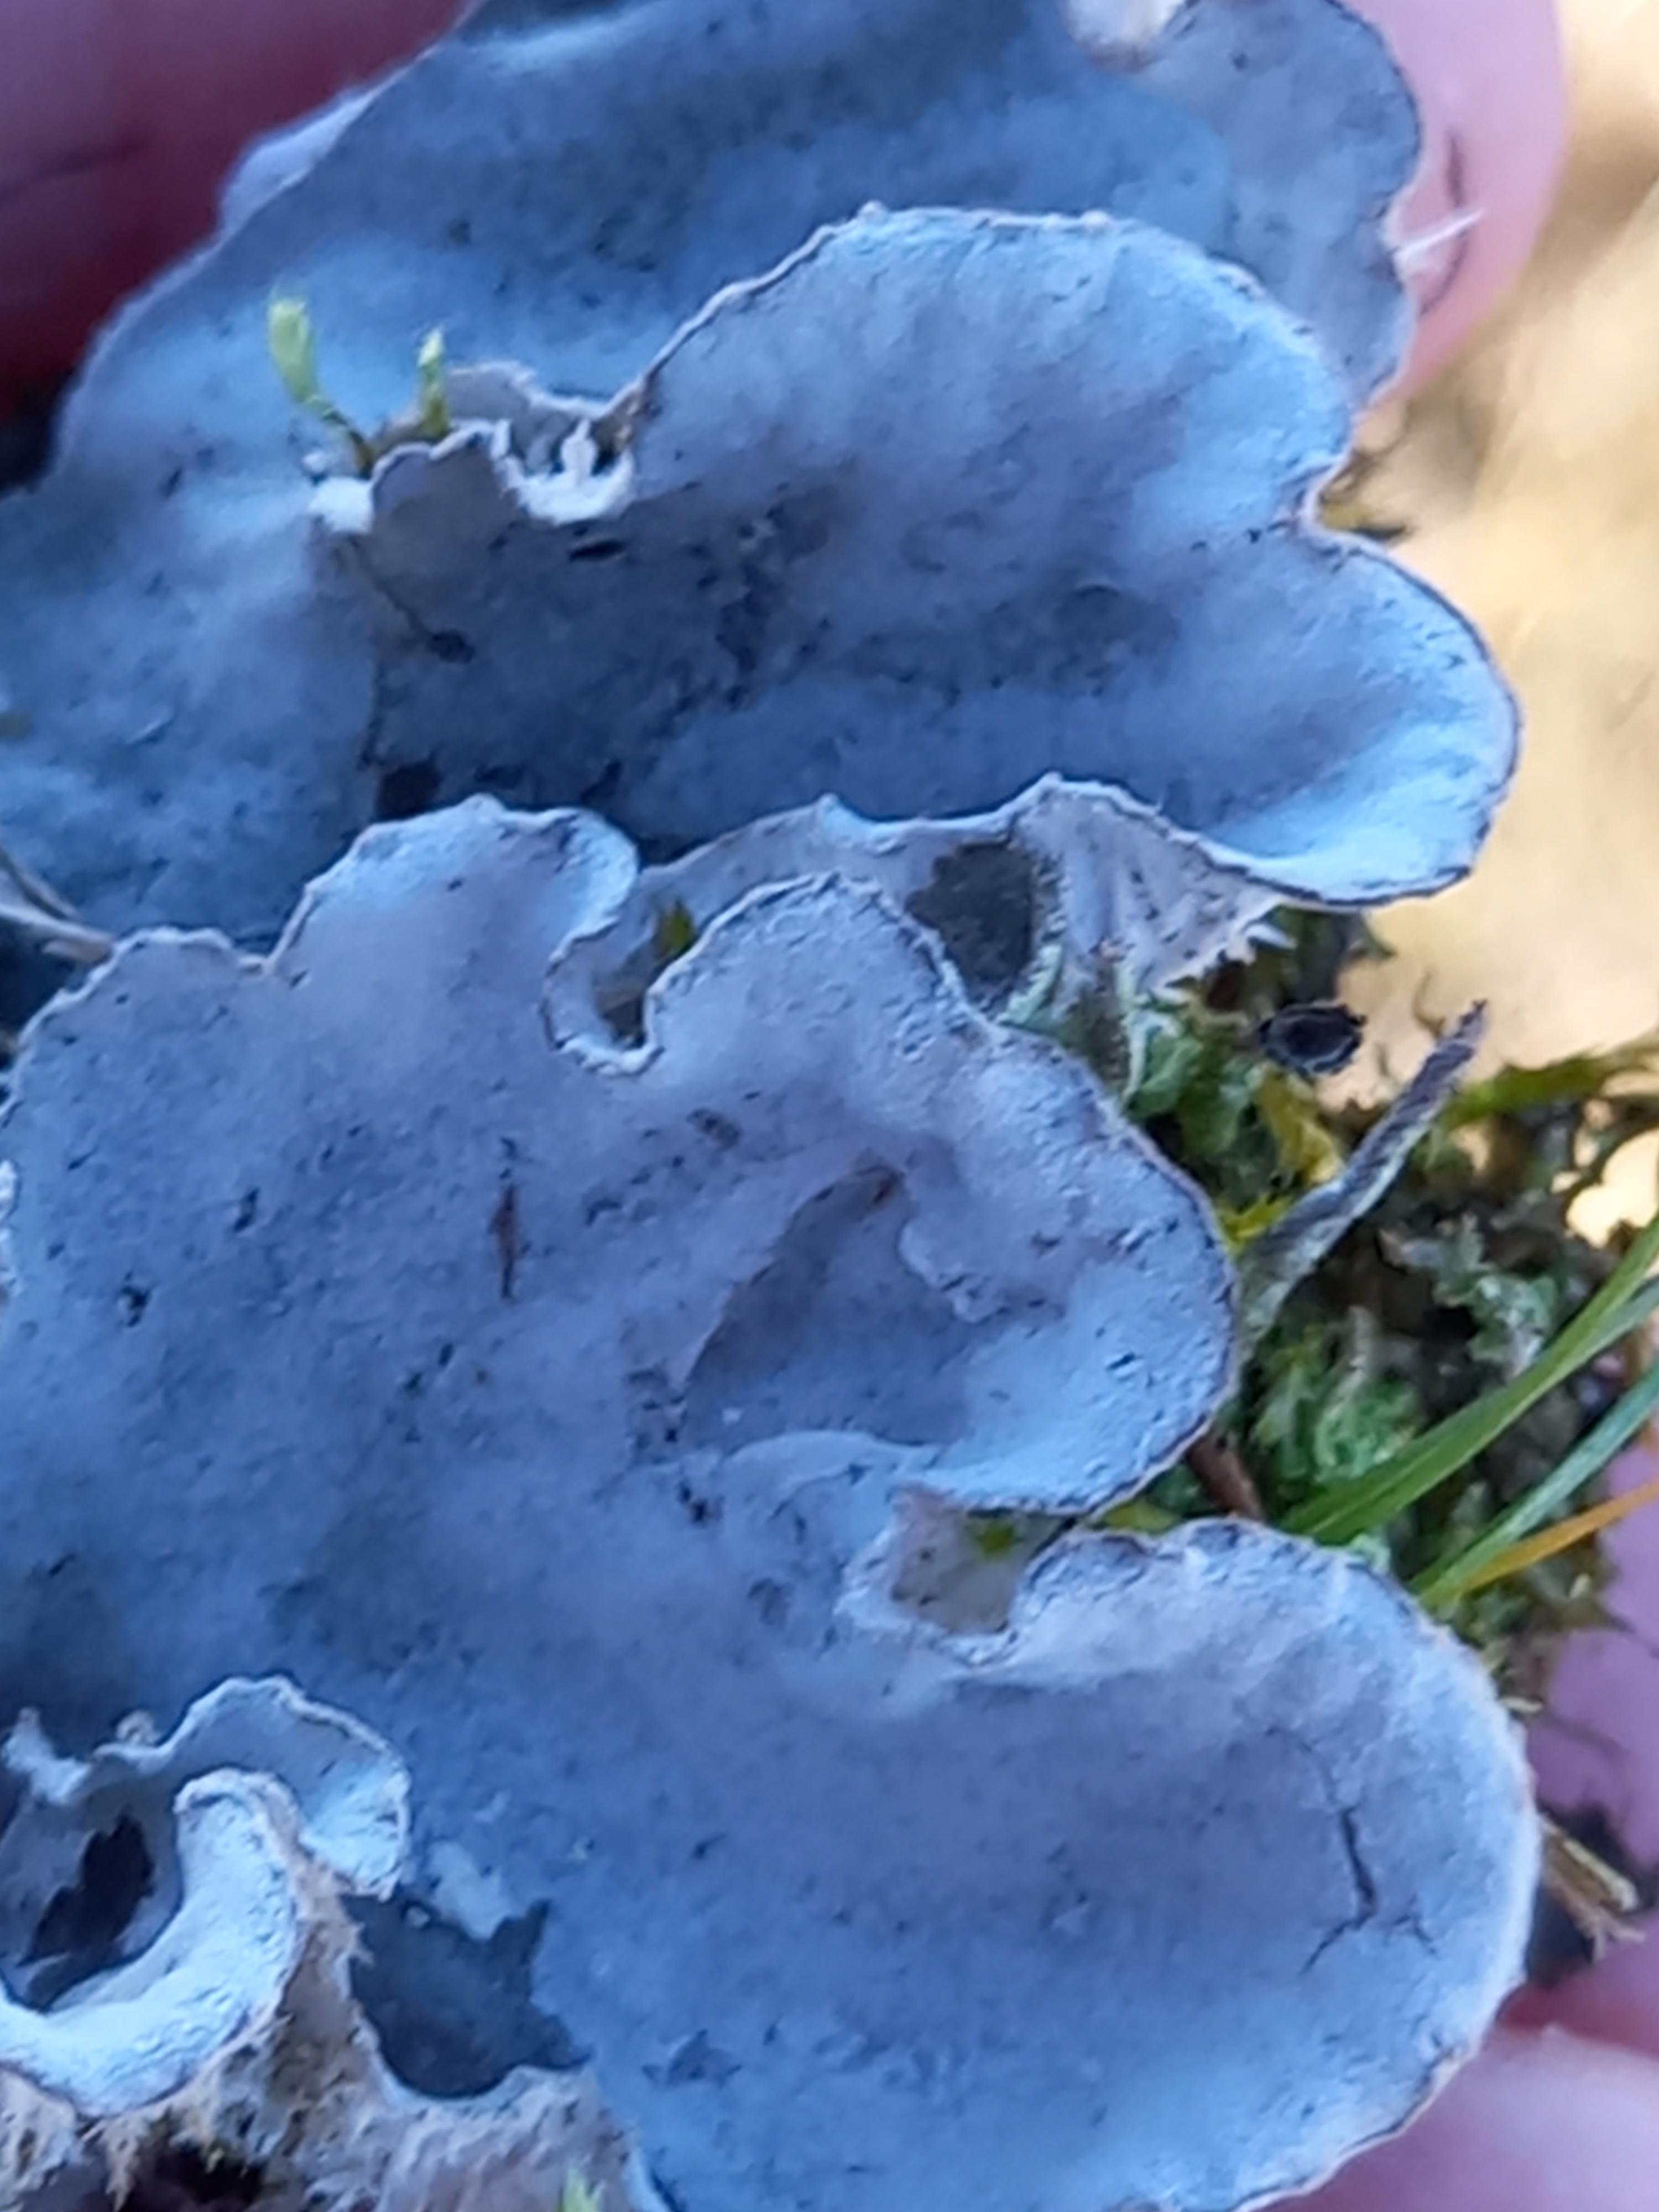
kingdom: Fungi
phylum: Ascomycota
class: Lecanoromycetes
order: Peltigerales
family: Peltigeraceae
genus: Peltigera
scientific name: Peltigera membranacea
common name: tynd skjoldlav
